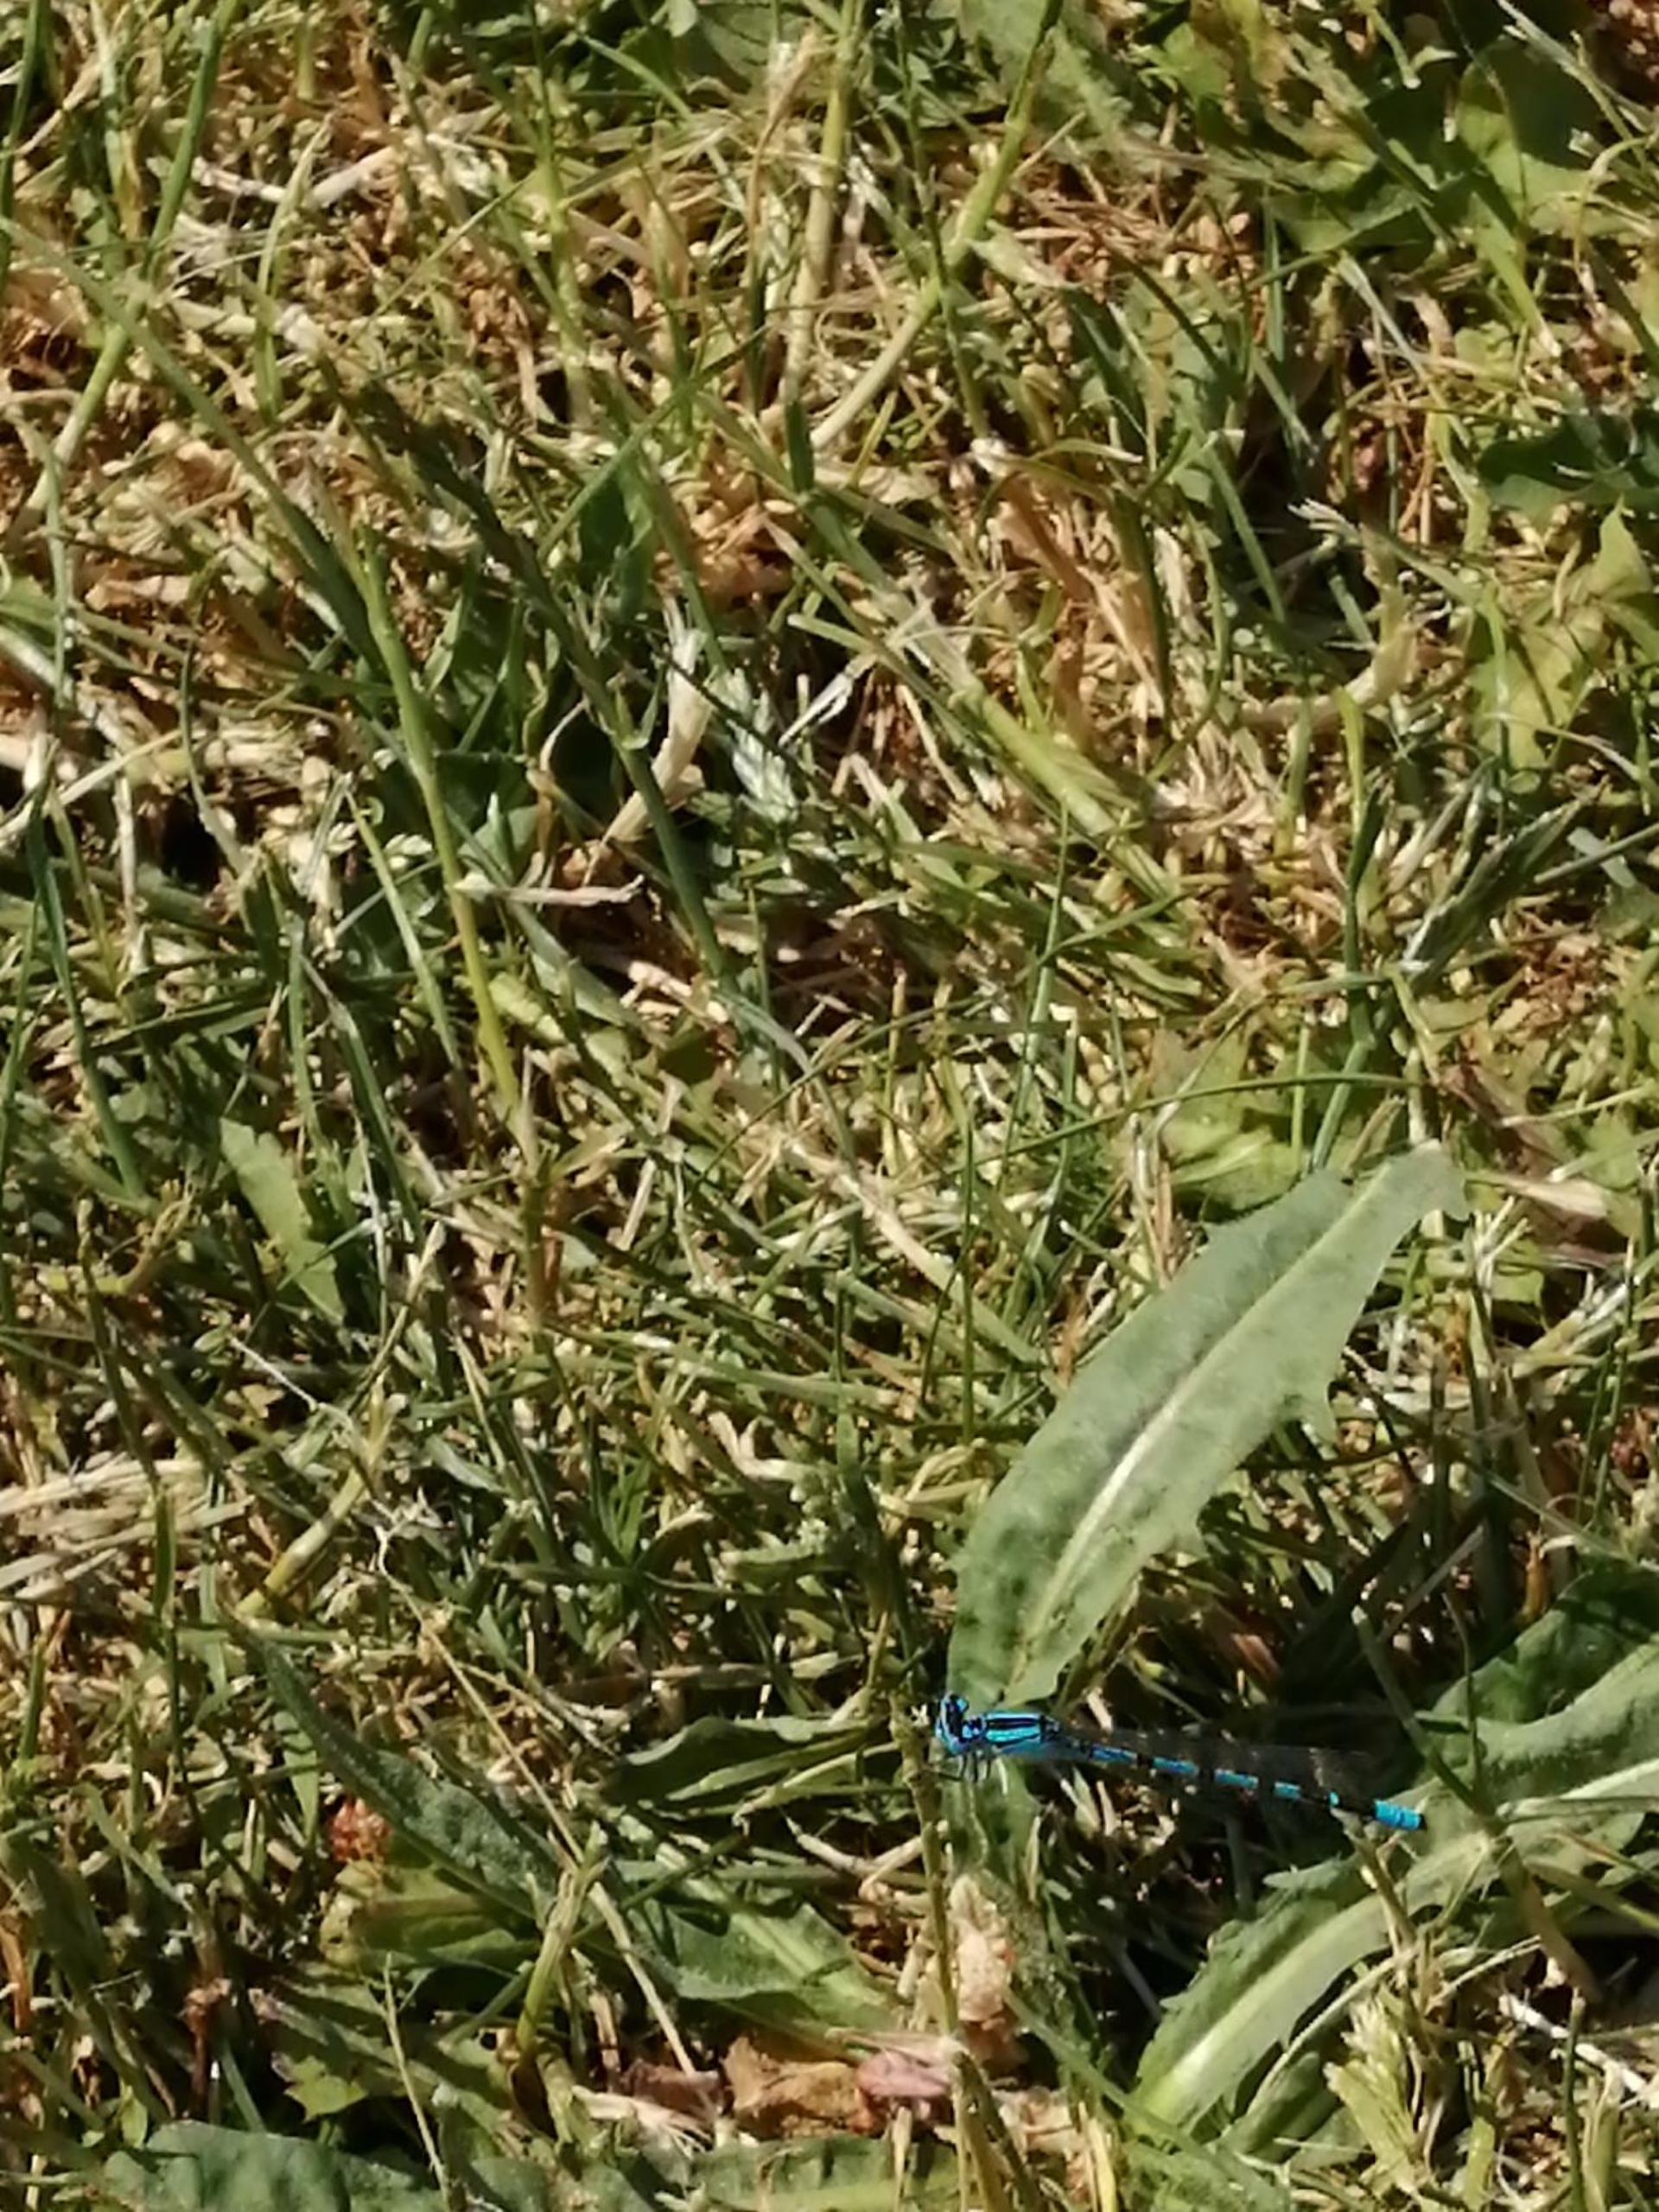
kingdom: Animalia
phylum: Arthropoda
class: Insecta
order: Odonata
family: Coenagrionidae
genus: Enallagma
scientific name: Enallagma cyathigerum
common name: Almindelig vandnymfe
